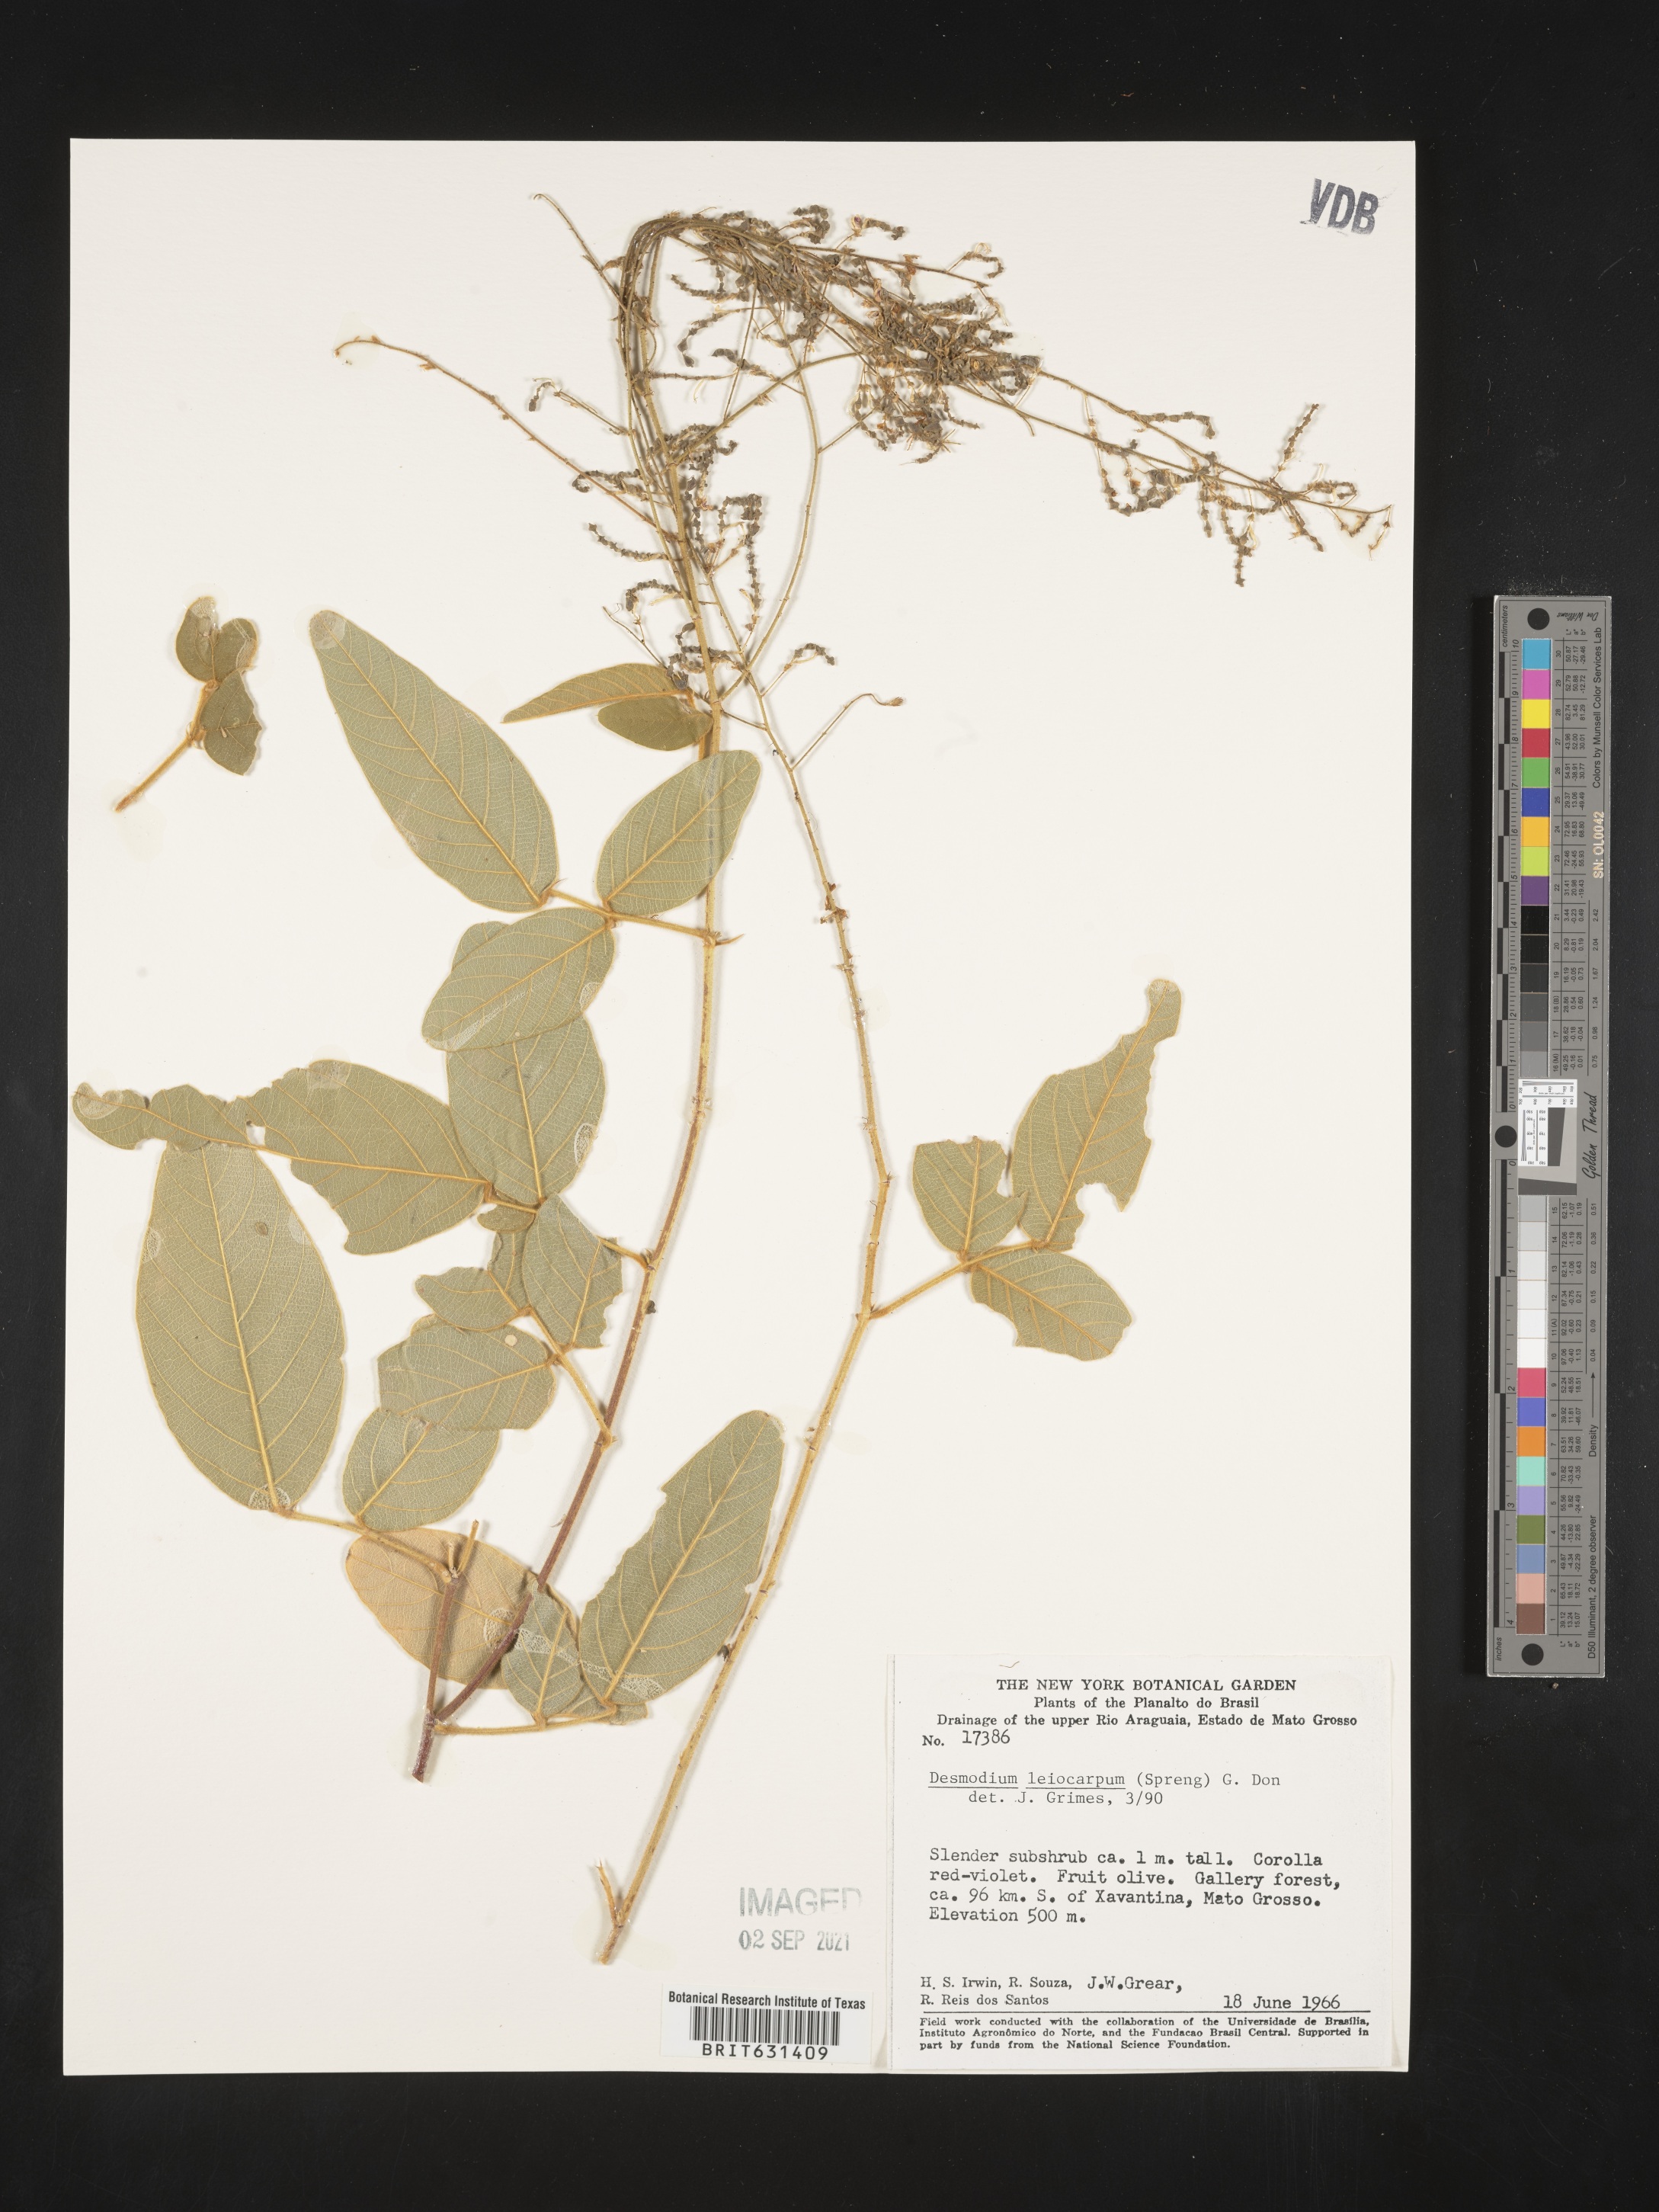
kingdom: Plantae
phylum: Tracheophyta
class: Magnoliopsida
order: Fabales
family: Fabaceae
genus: Desmodium
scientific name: Desmodium leiocarpum
